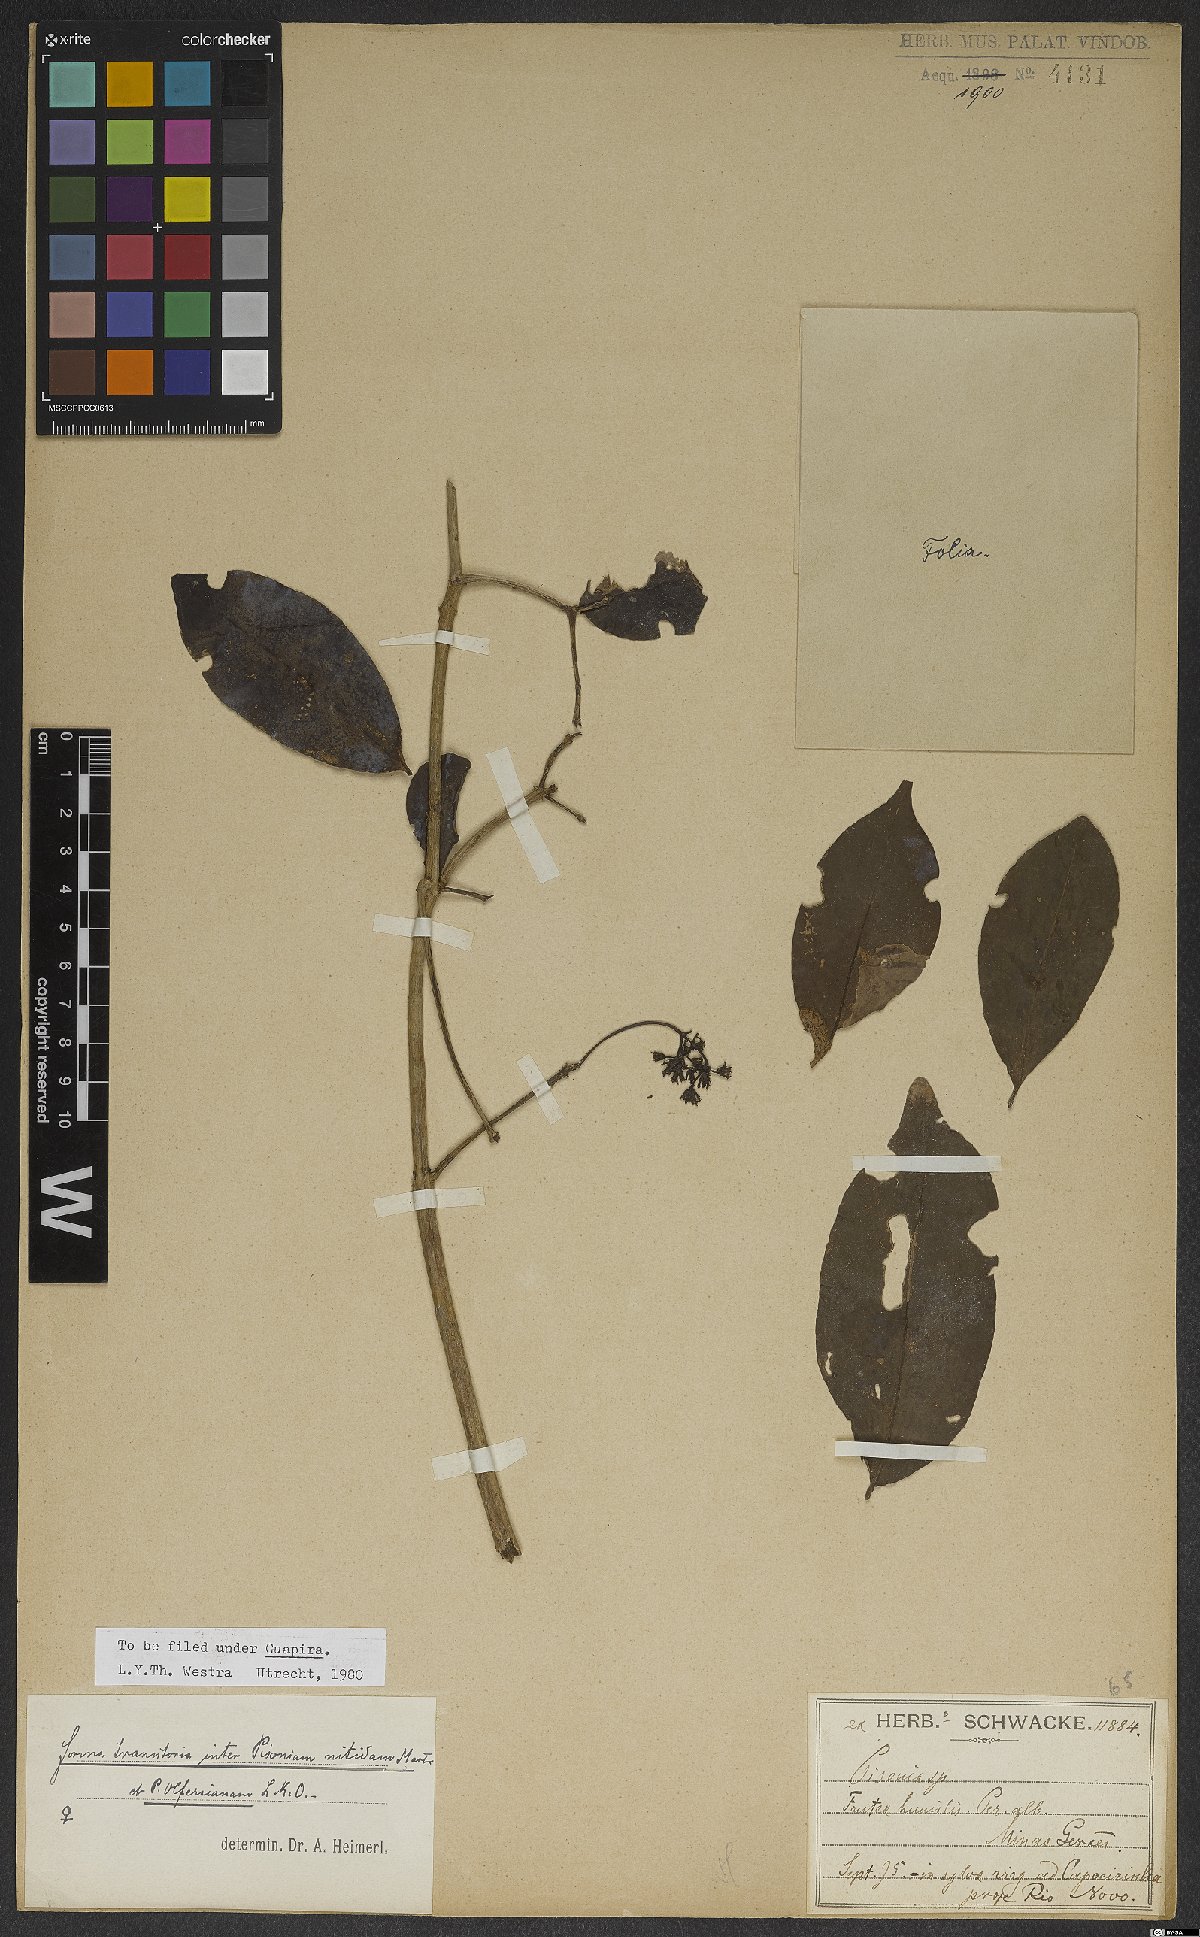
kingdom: Plantae
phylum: Tracheophyta
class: Magnoliopsida
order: Caryophyllales
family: Nyctaginaceae
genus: Guapira
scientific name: Guapira opposita
